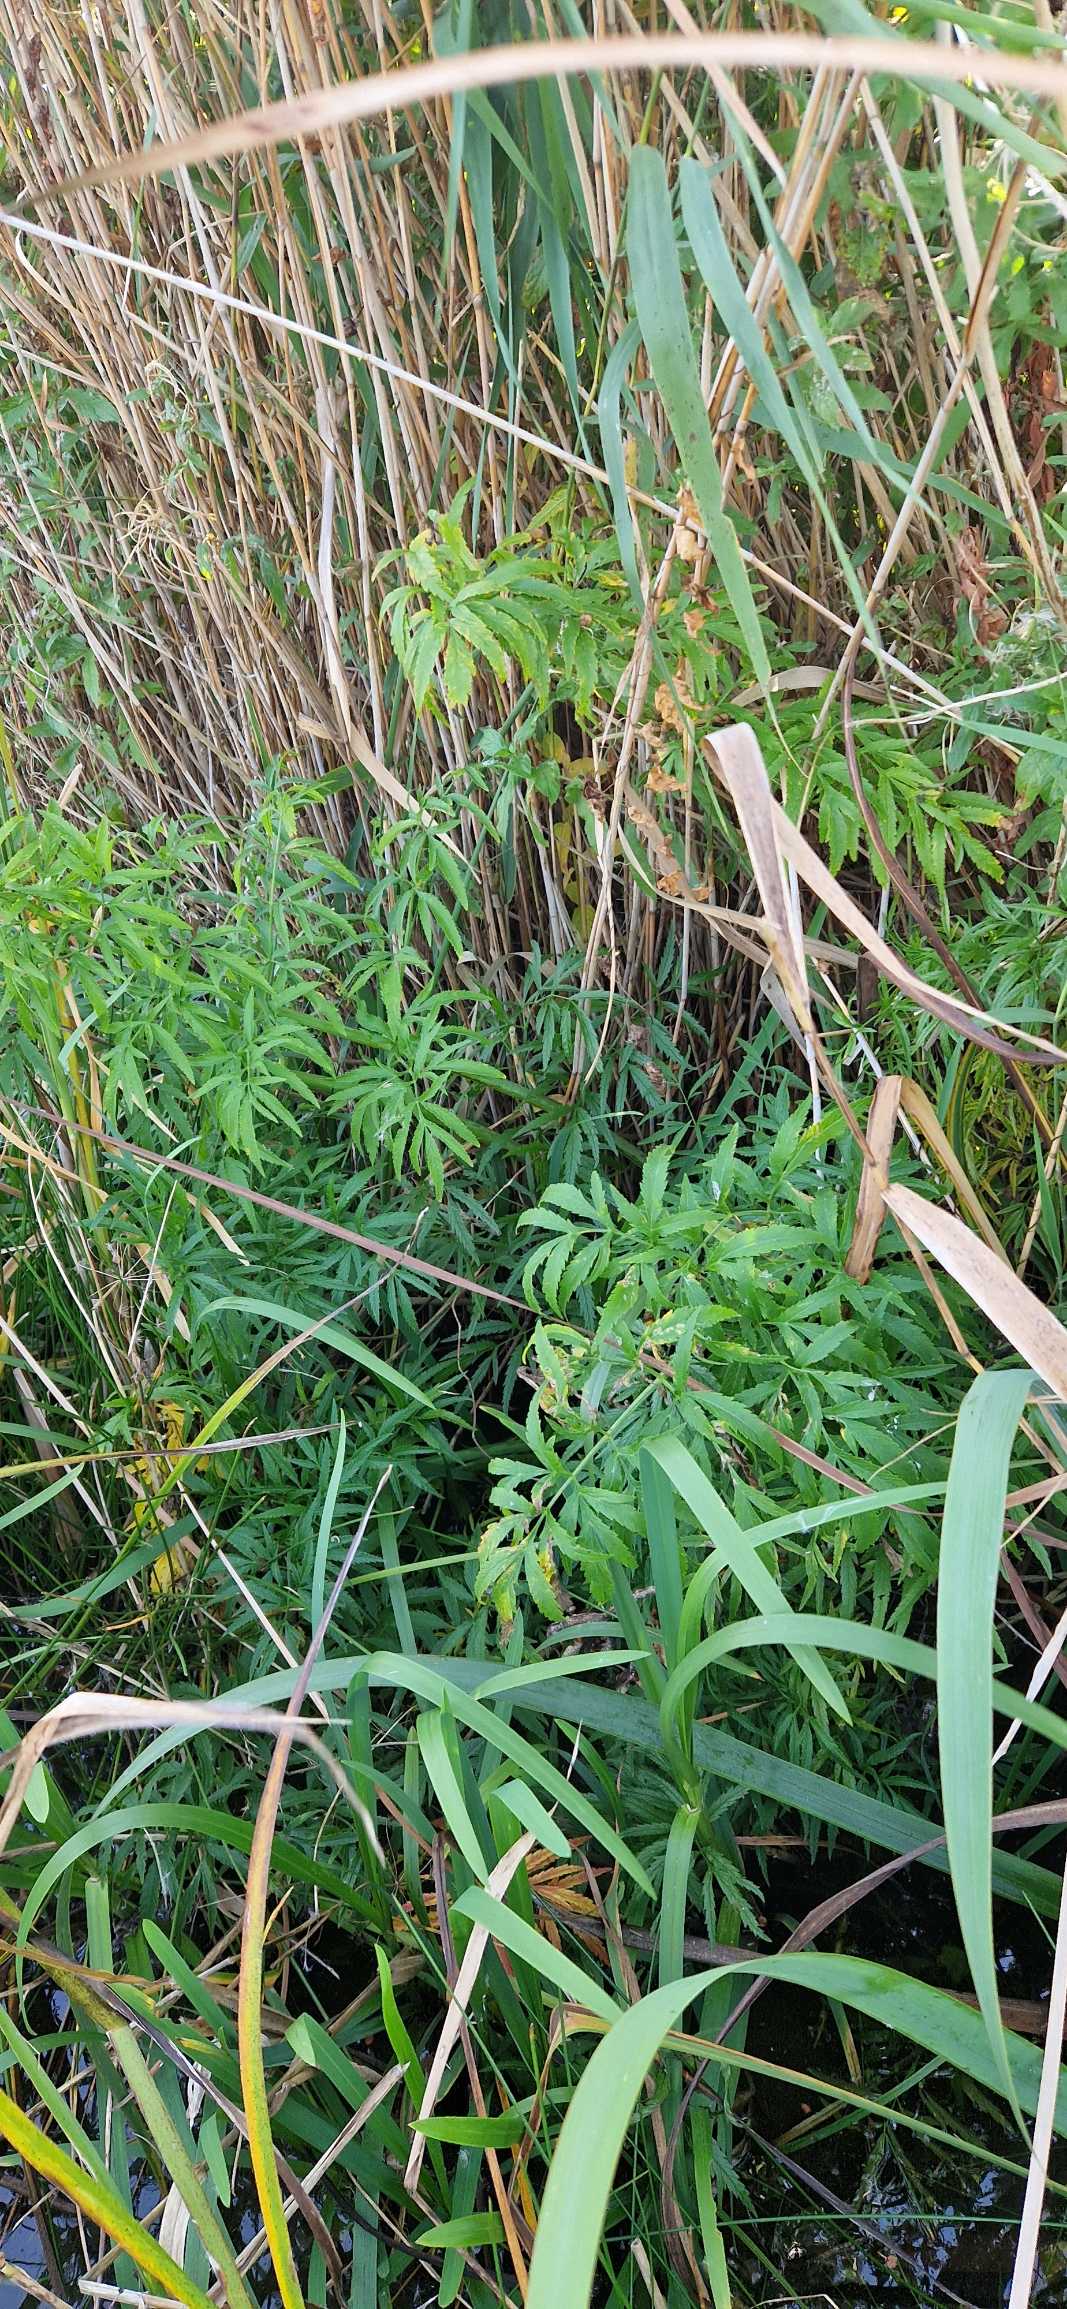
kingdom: Plantae
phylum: Tracheophyta
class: Magnoliopsida
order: Apiales
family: Apiaceae
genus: Cicuta
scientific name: Cicuta virosa
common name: Gifttyde
